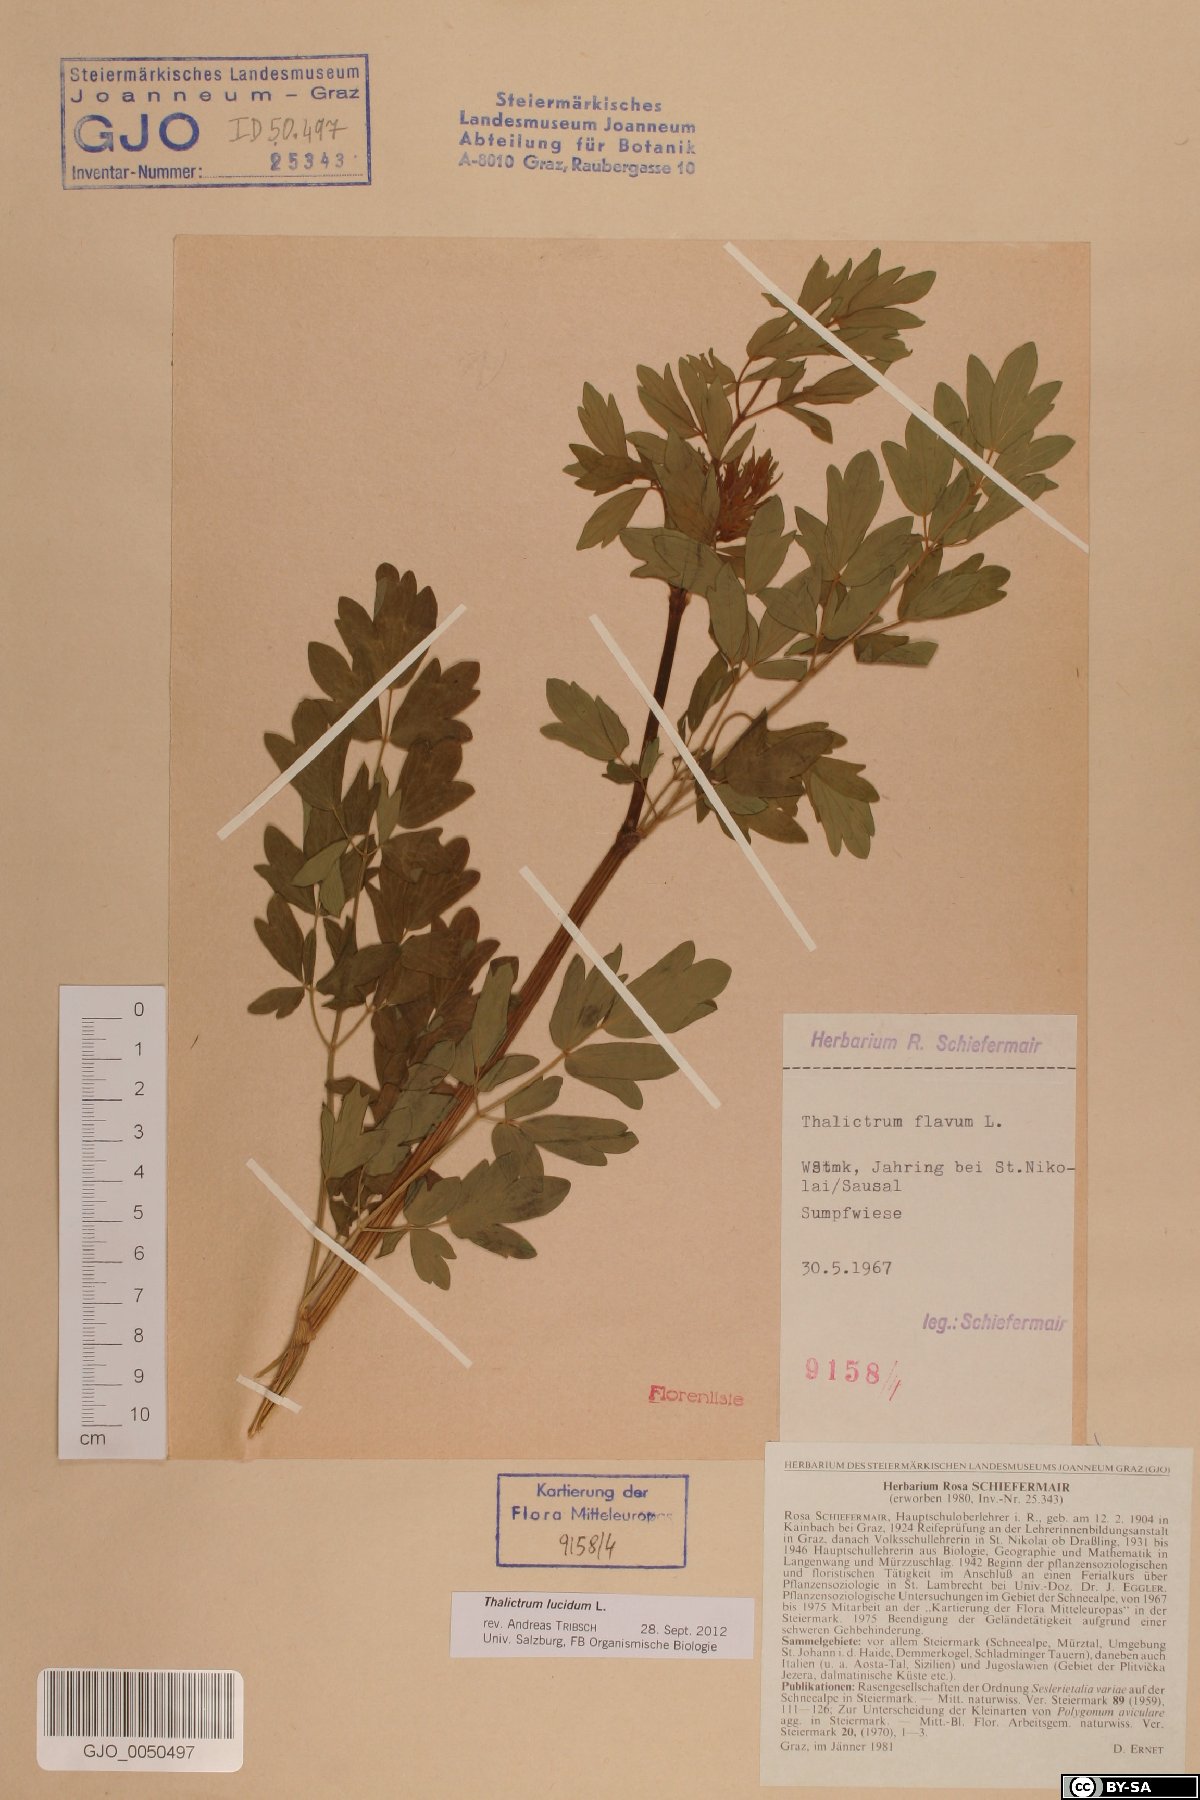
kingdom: Plantae
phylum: Tracheophyta
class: Magnoliopsida
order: Ranunculales
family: Ranunculaceae
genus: Thalictrum
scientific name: Thalictrum lucidum
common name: Shining meadow-rue
